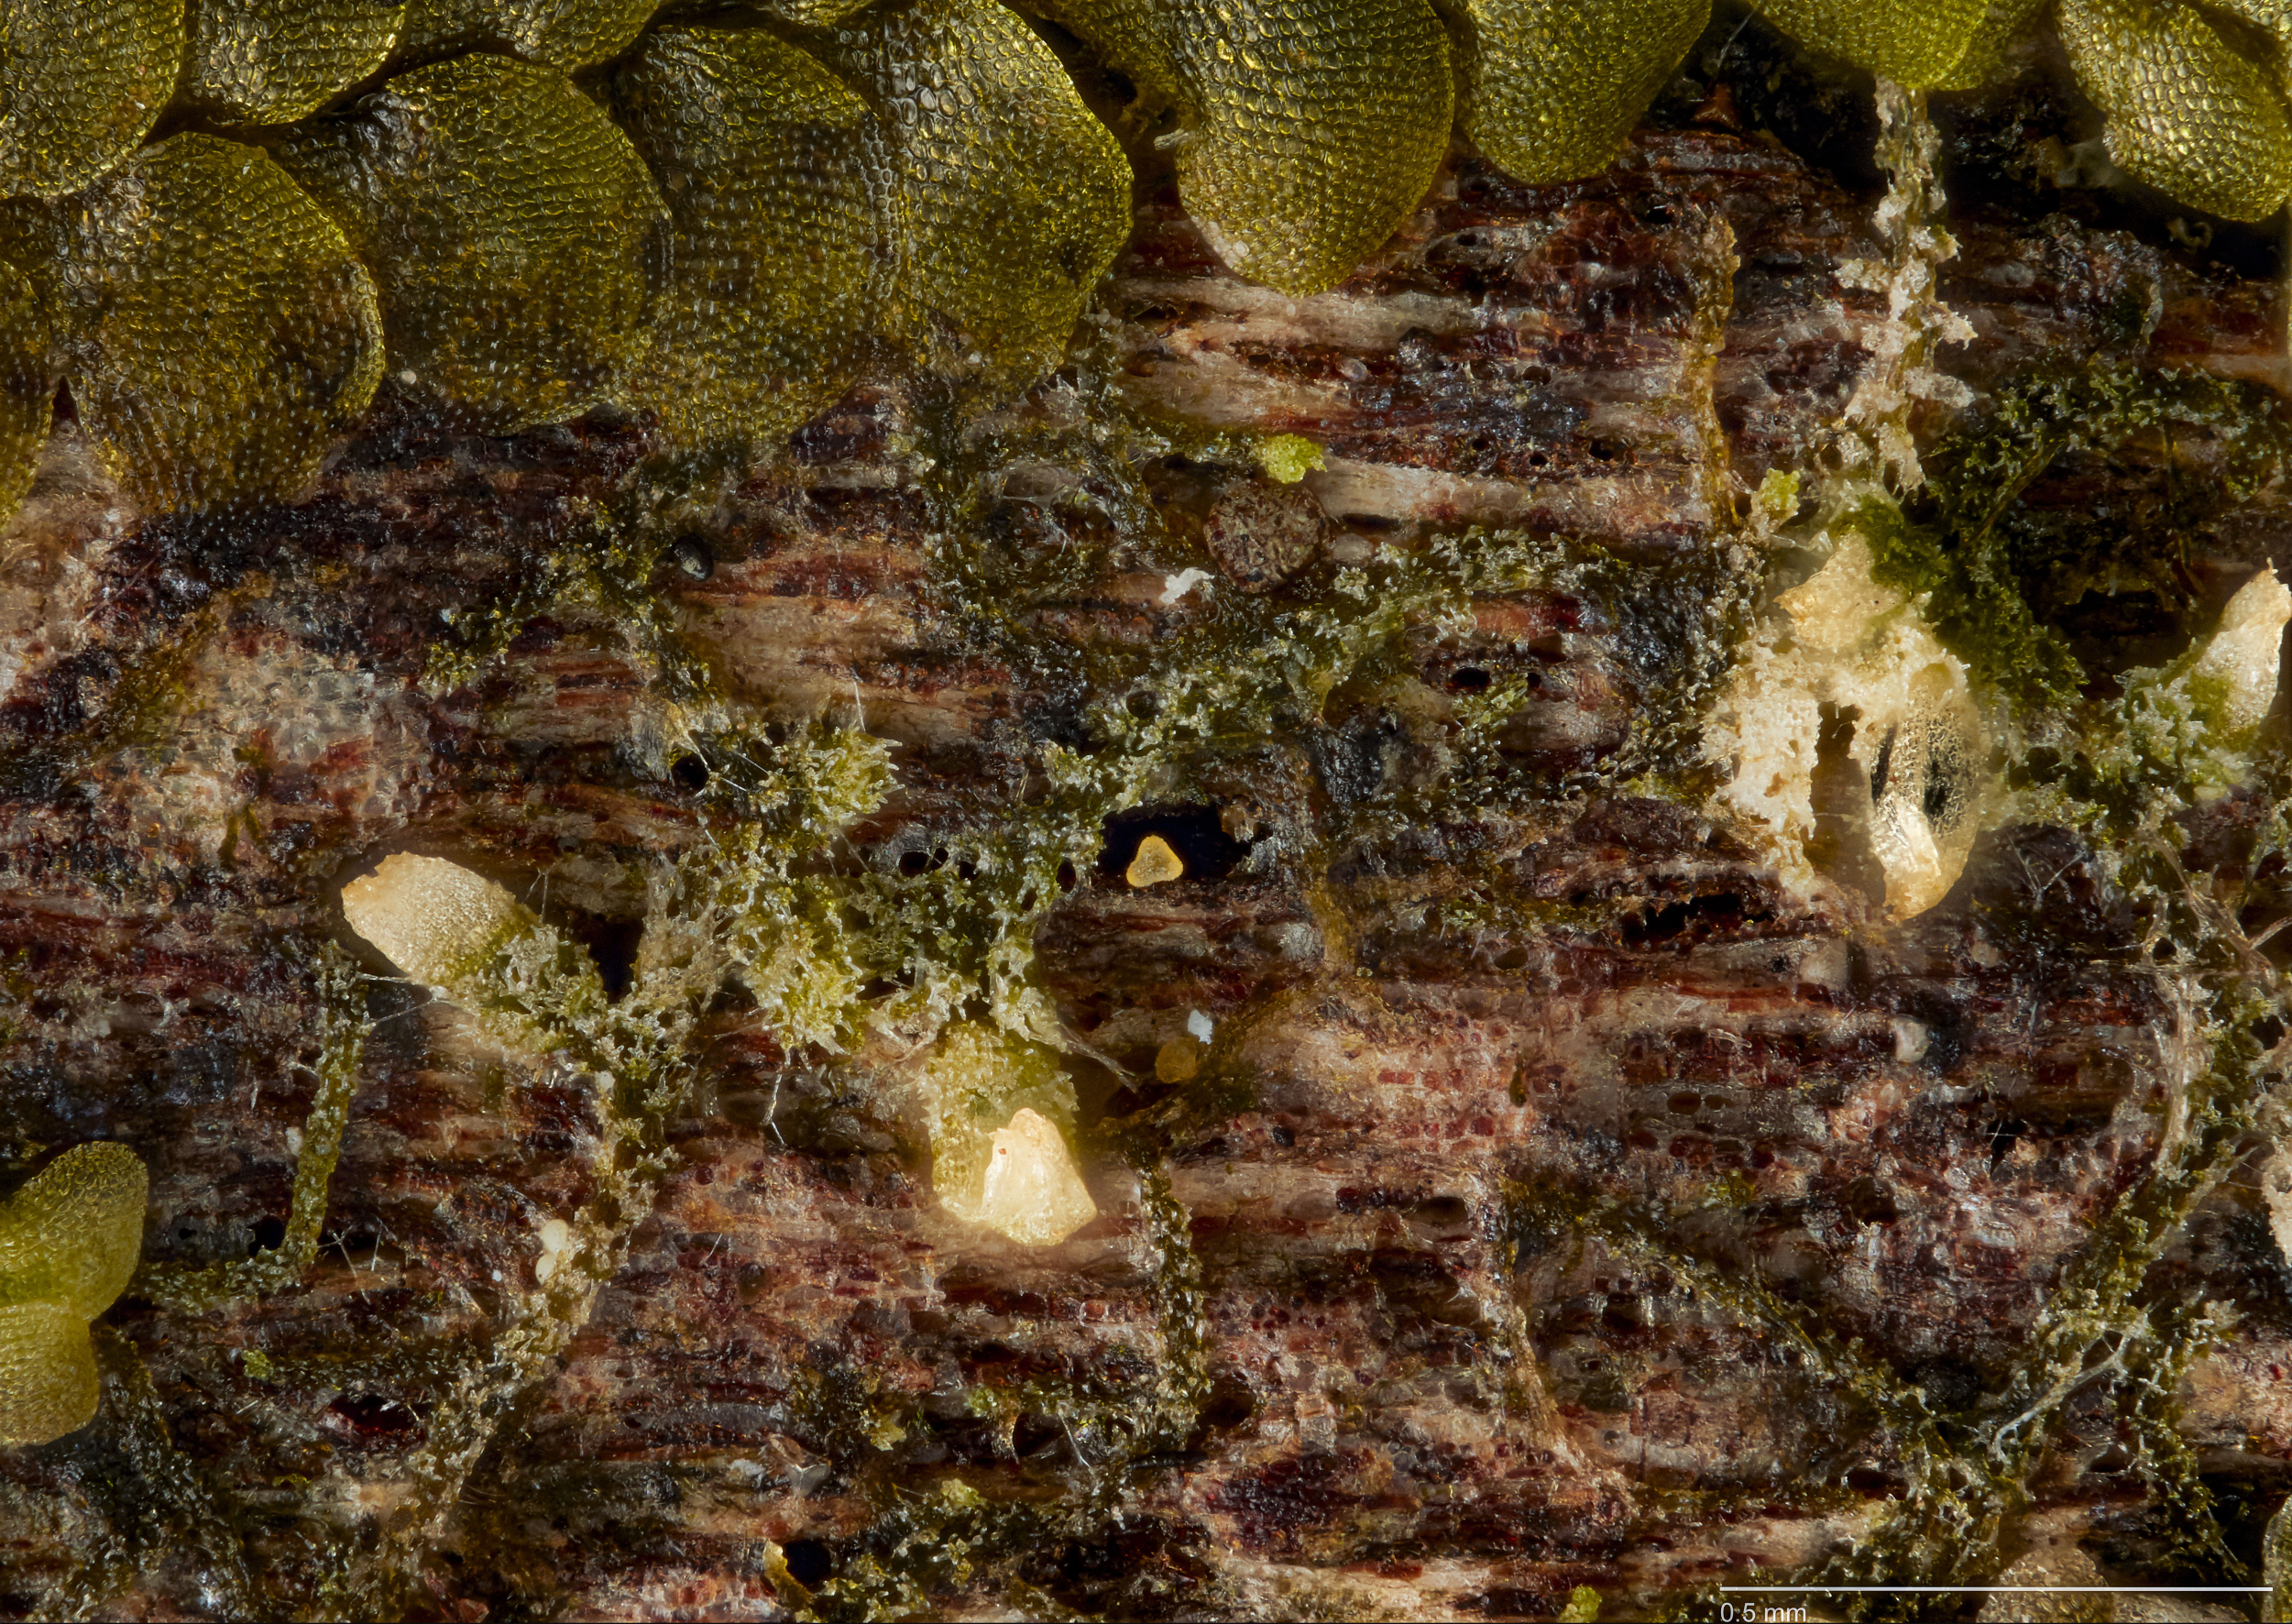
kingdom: Plantae
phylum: Marchantiophyta
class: Jungermanniopsida
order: Porellales
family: Lejeuneaceae
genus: Cheilolejeunea
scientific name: Cheilolejeunea
